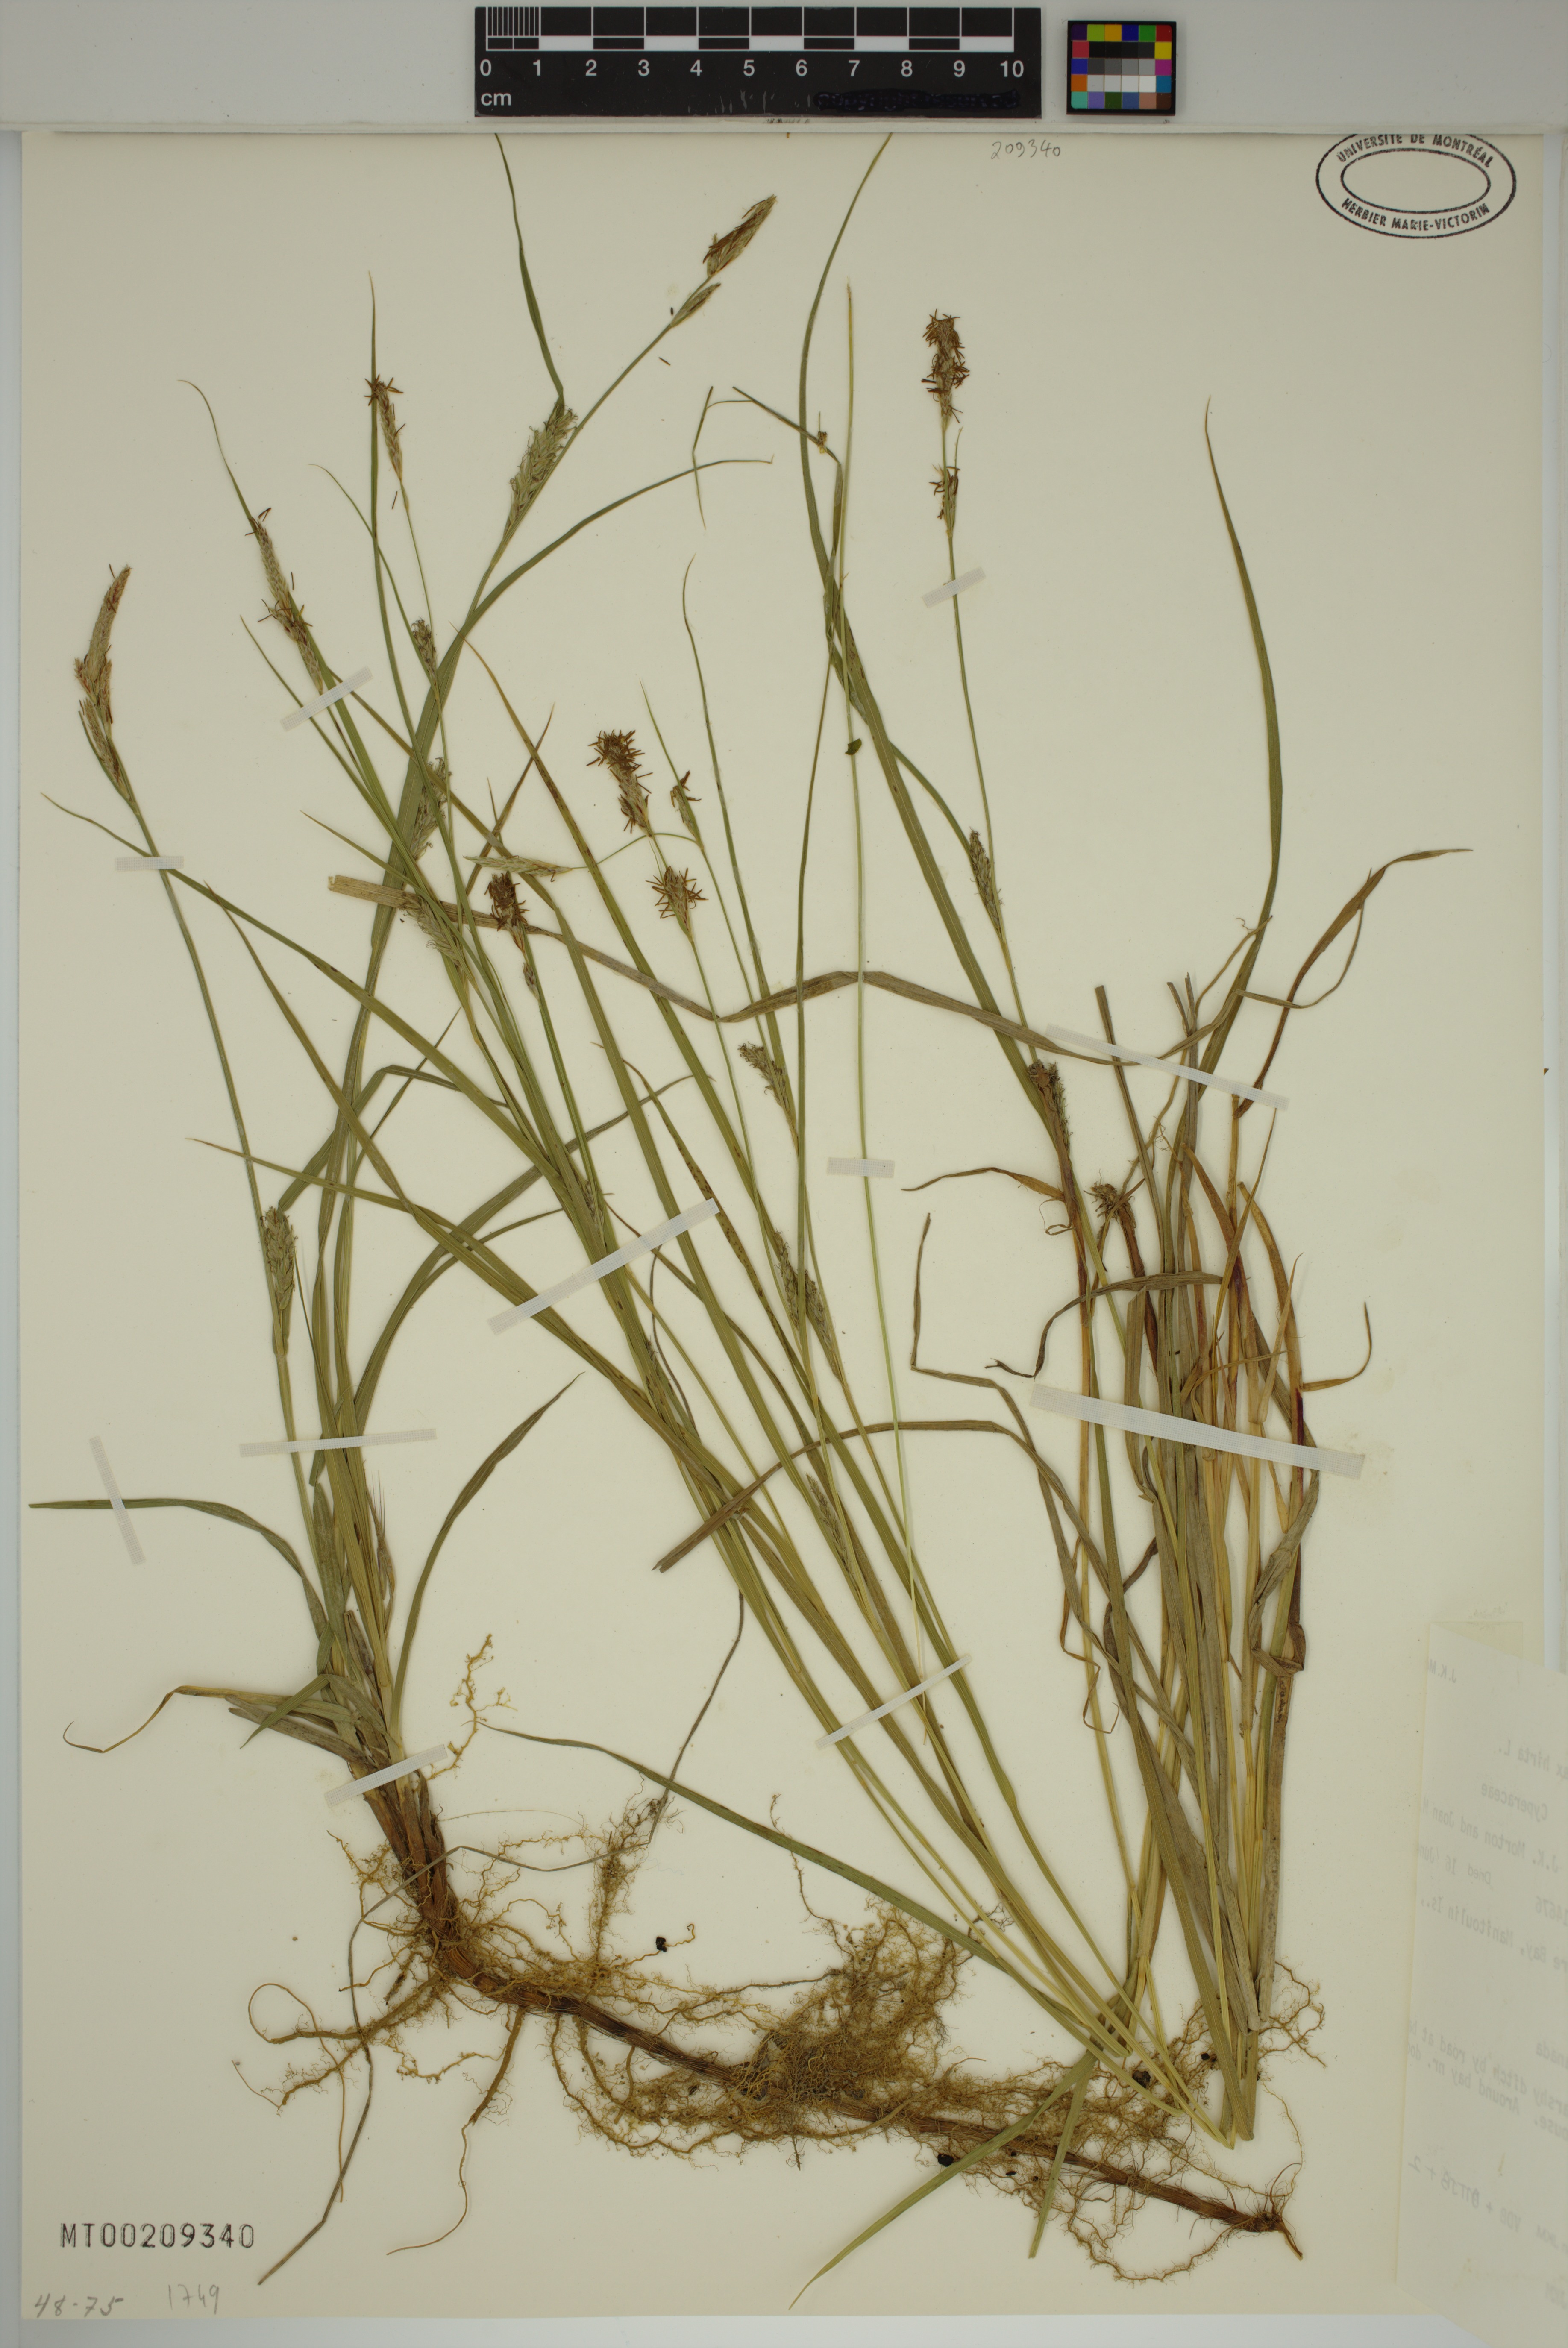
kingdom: Plantae
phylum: Tracheophyta
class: Liliopsida
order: Poales
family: Cyperaceae
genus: Carex
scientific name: Carex hirta
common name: Hairy sedge
